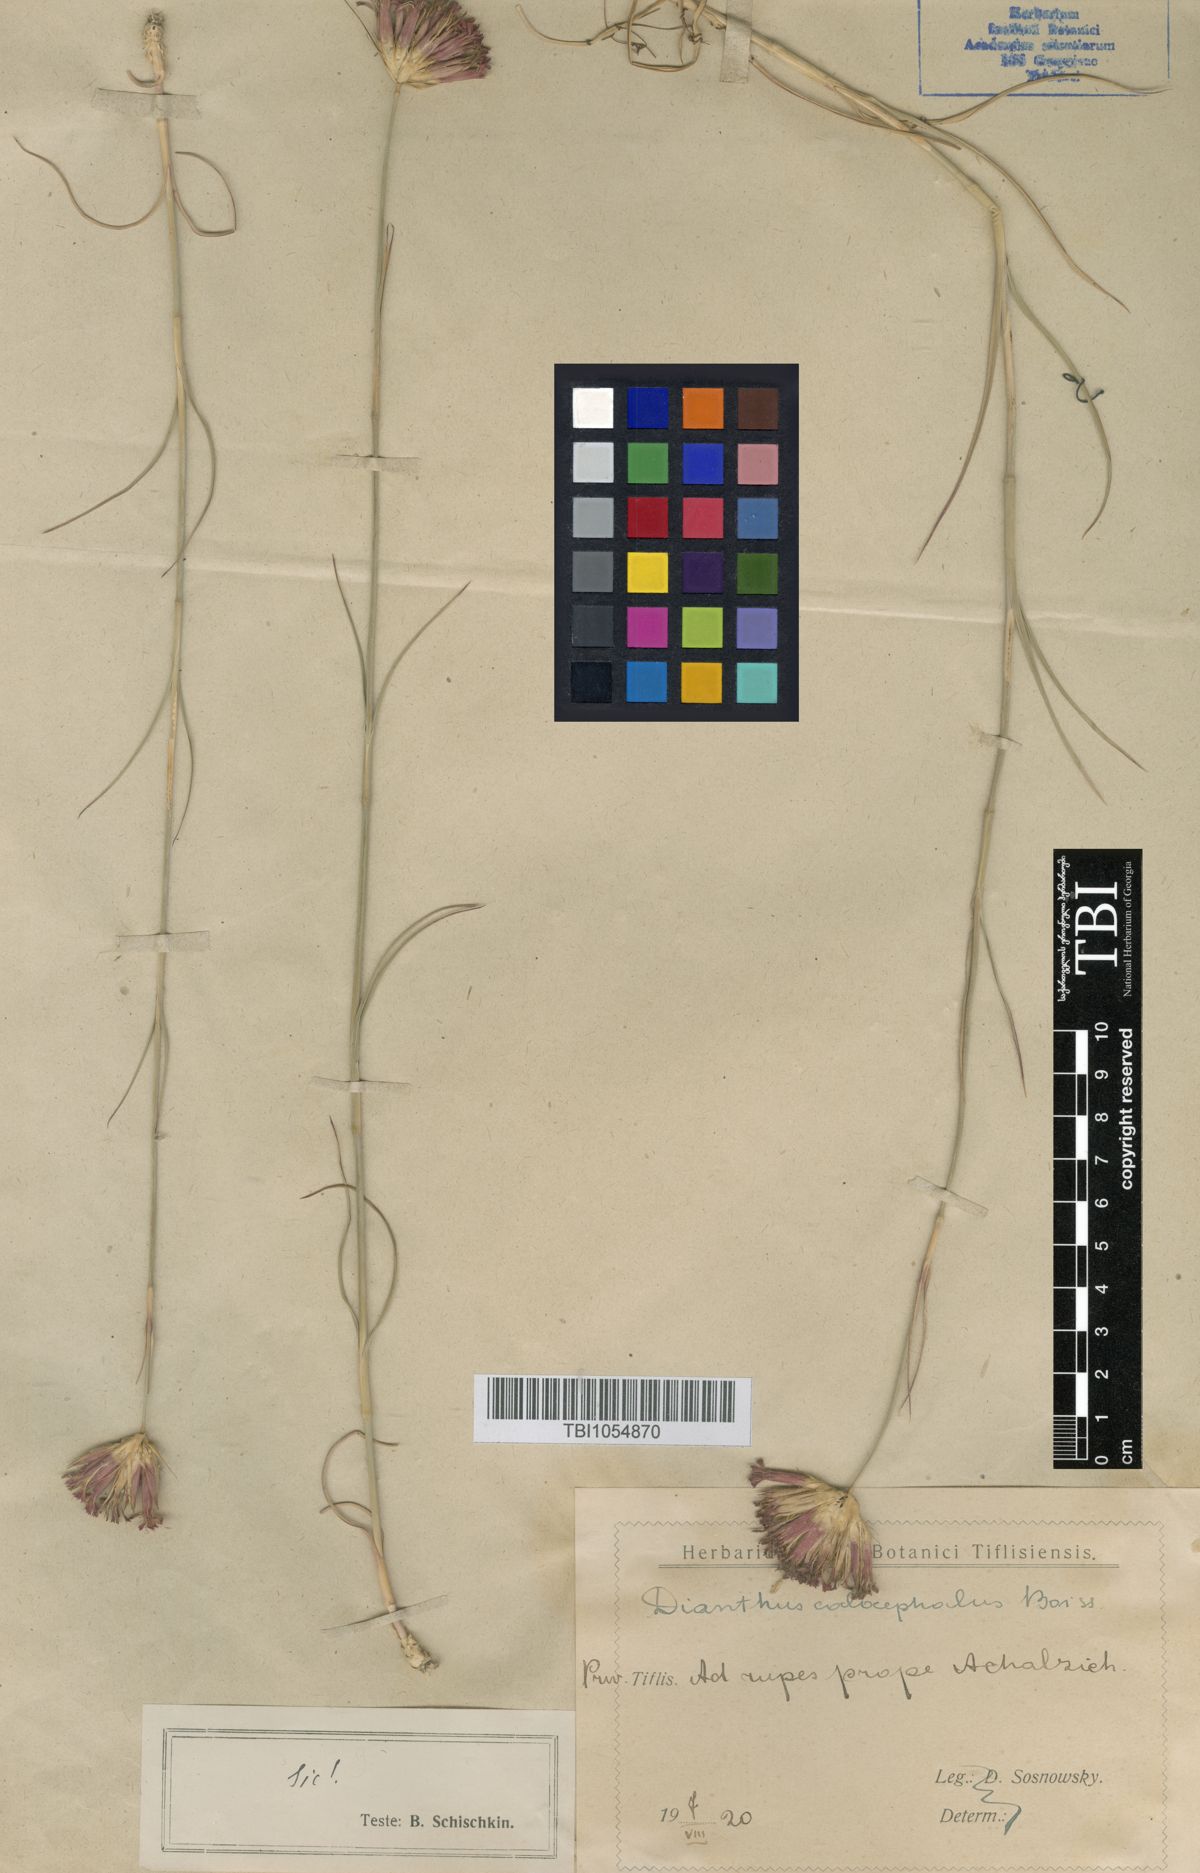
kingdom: Plantae
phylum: Tracheophyta
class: Magnoliopsida
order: Caryophyllales
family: Caryophyllaceae
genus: Dianthus
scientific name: Dianthus cruentus
